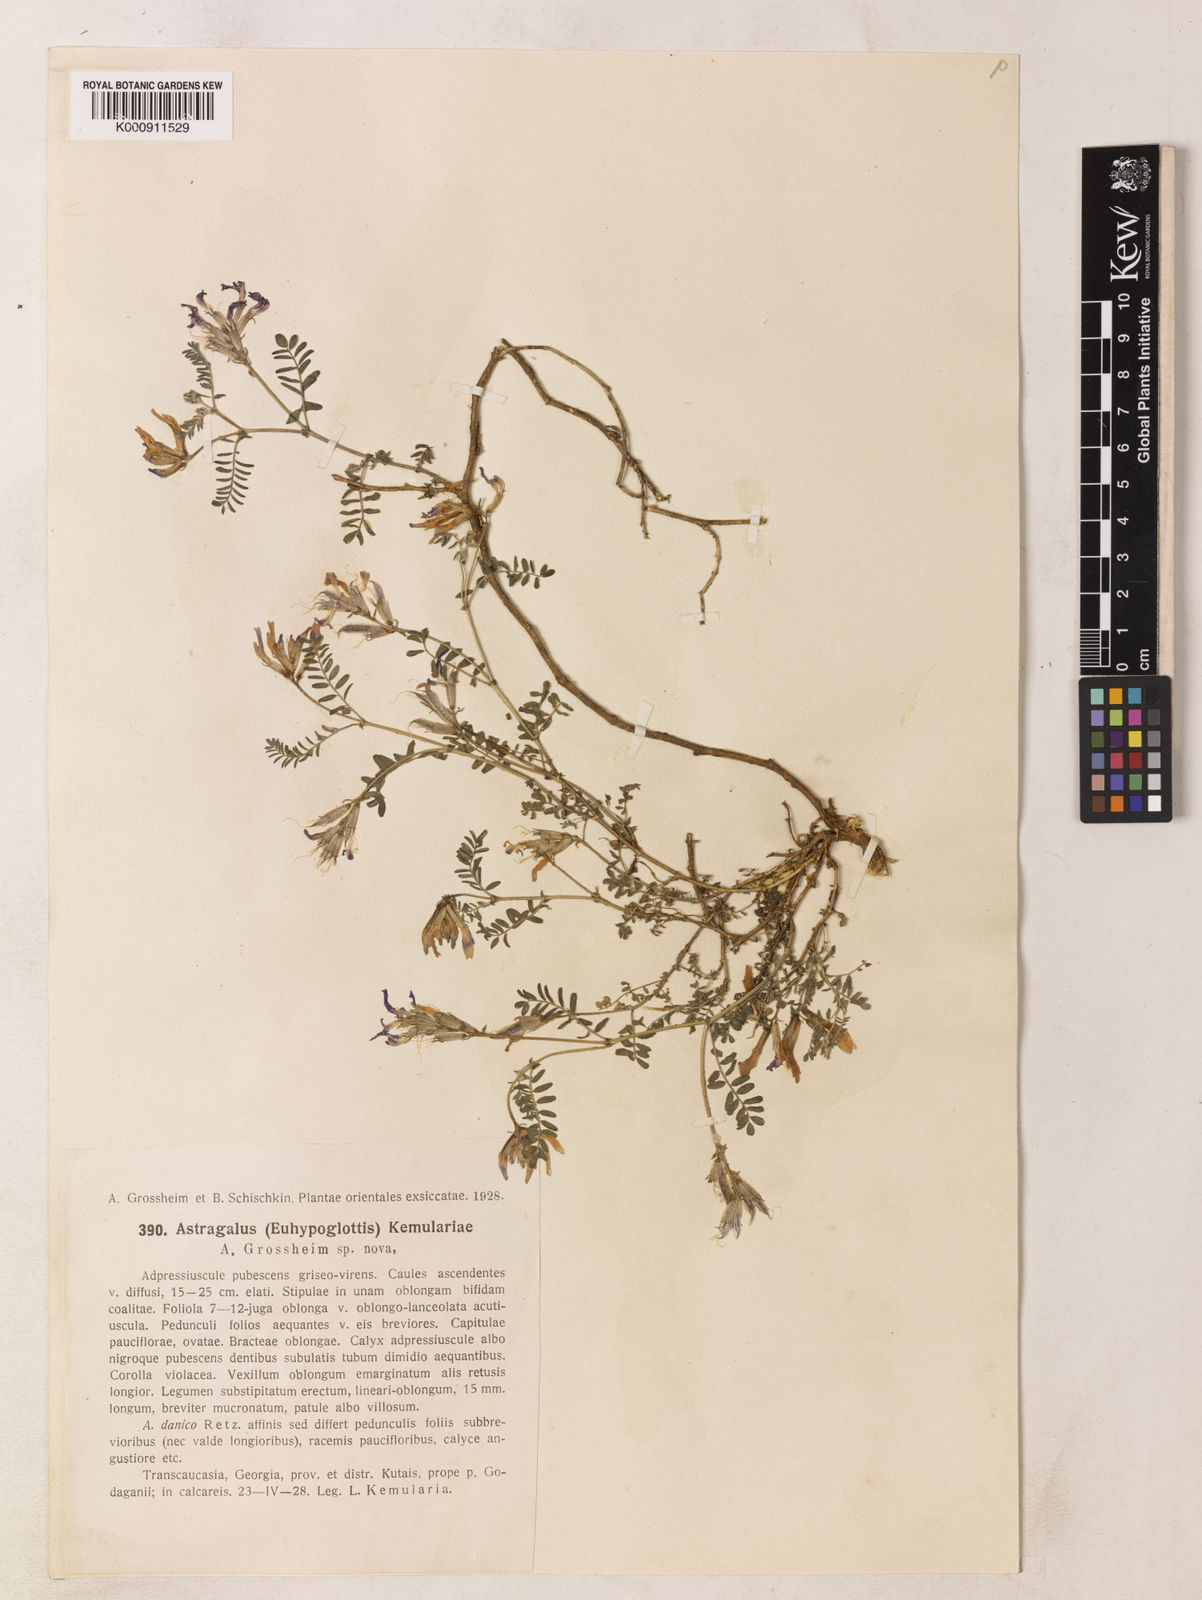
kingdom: Plantae
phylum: Tracheophyta
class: Magnoliopsida
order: Fabales
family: Fabaceae
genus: Astragalus
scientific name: Astragalus humifusus
